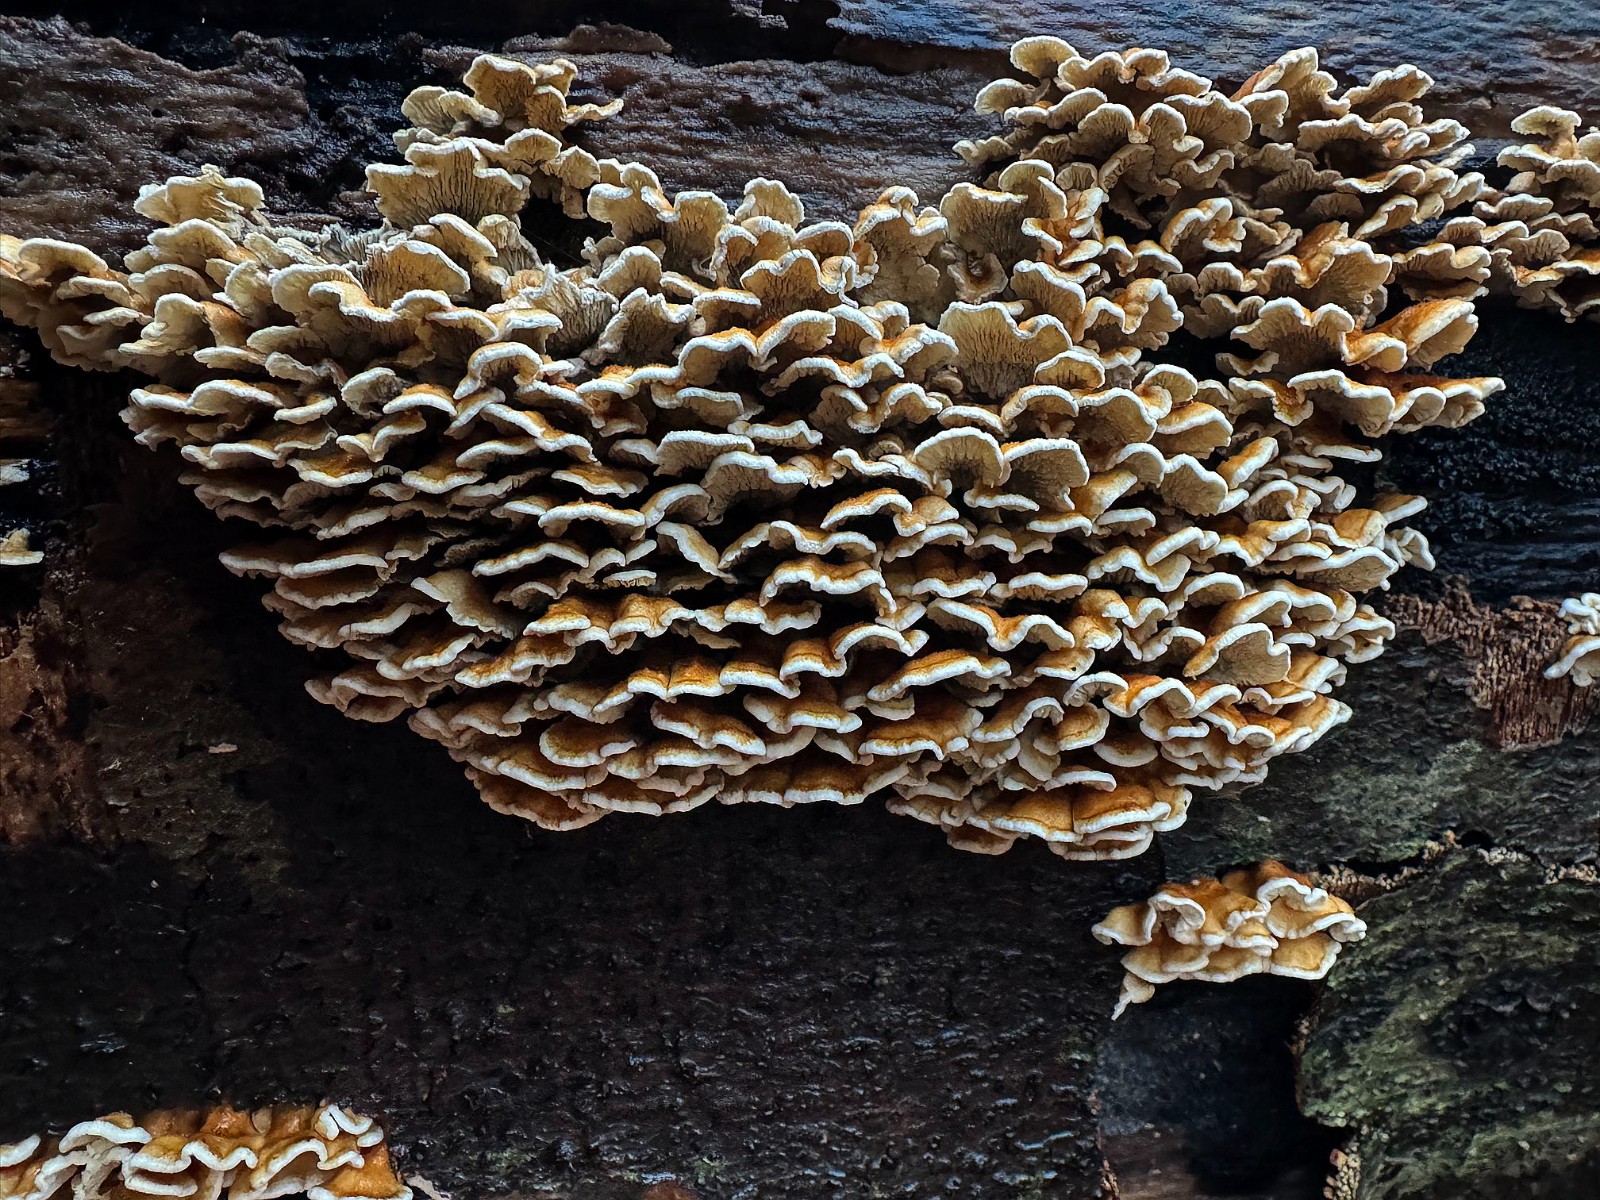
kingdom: Fungi
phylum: Basidiomycota
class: Agaricomycetes
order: Amylocorticiales
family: Amylocorticiaceae
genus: Plicaturopsis
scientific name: Plicaturopsis crispa
